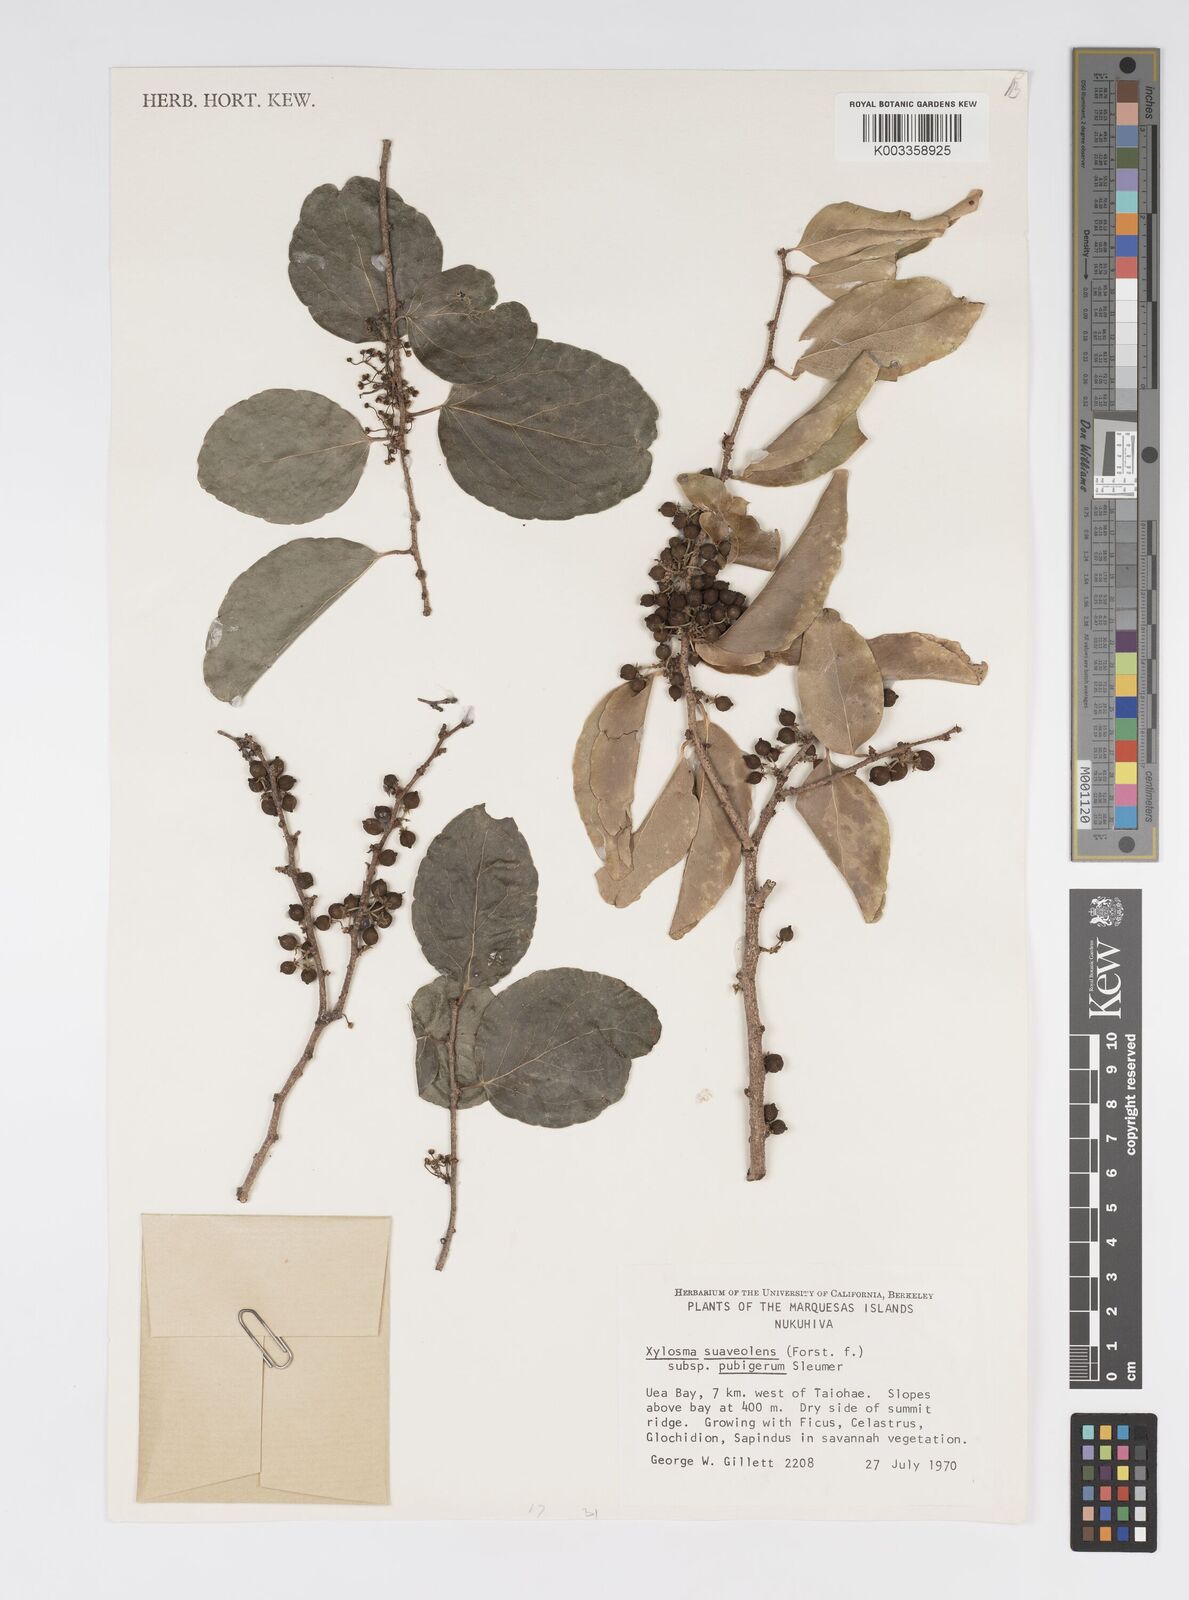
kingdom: Plantae
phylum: Tracheophyta
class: Magnoliopsida
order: Malpighiales
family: Salicaceae
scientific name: Salicaceae
